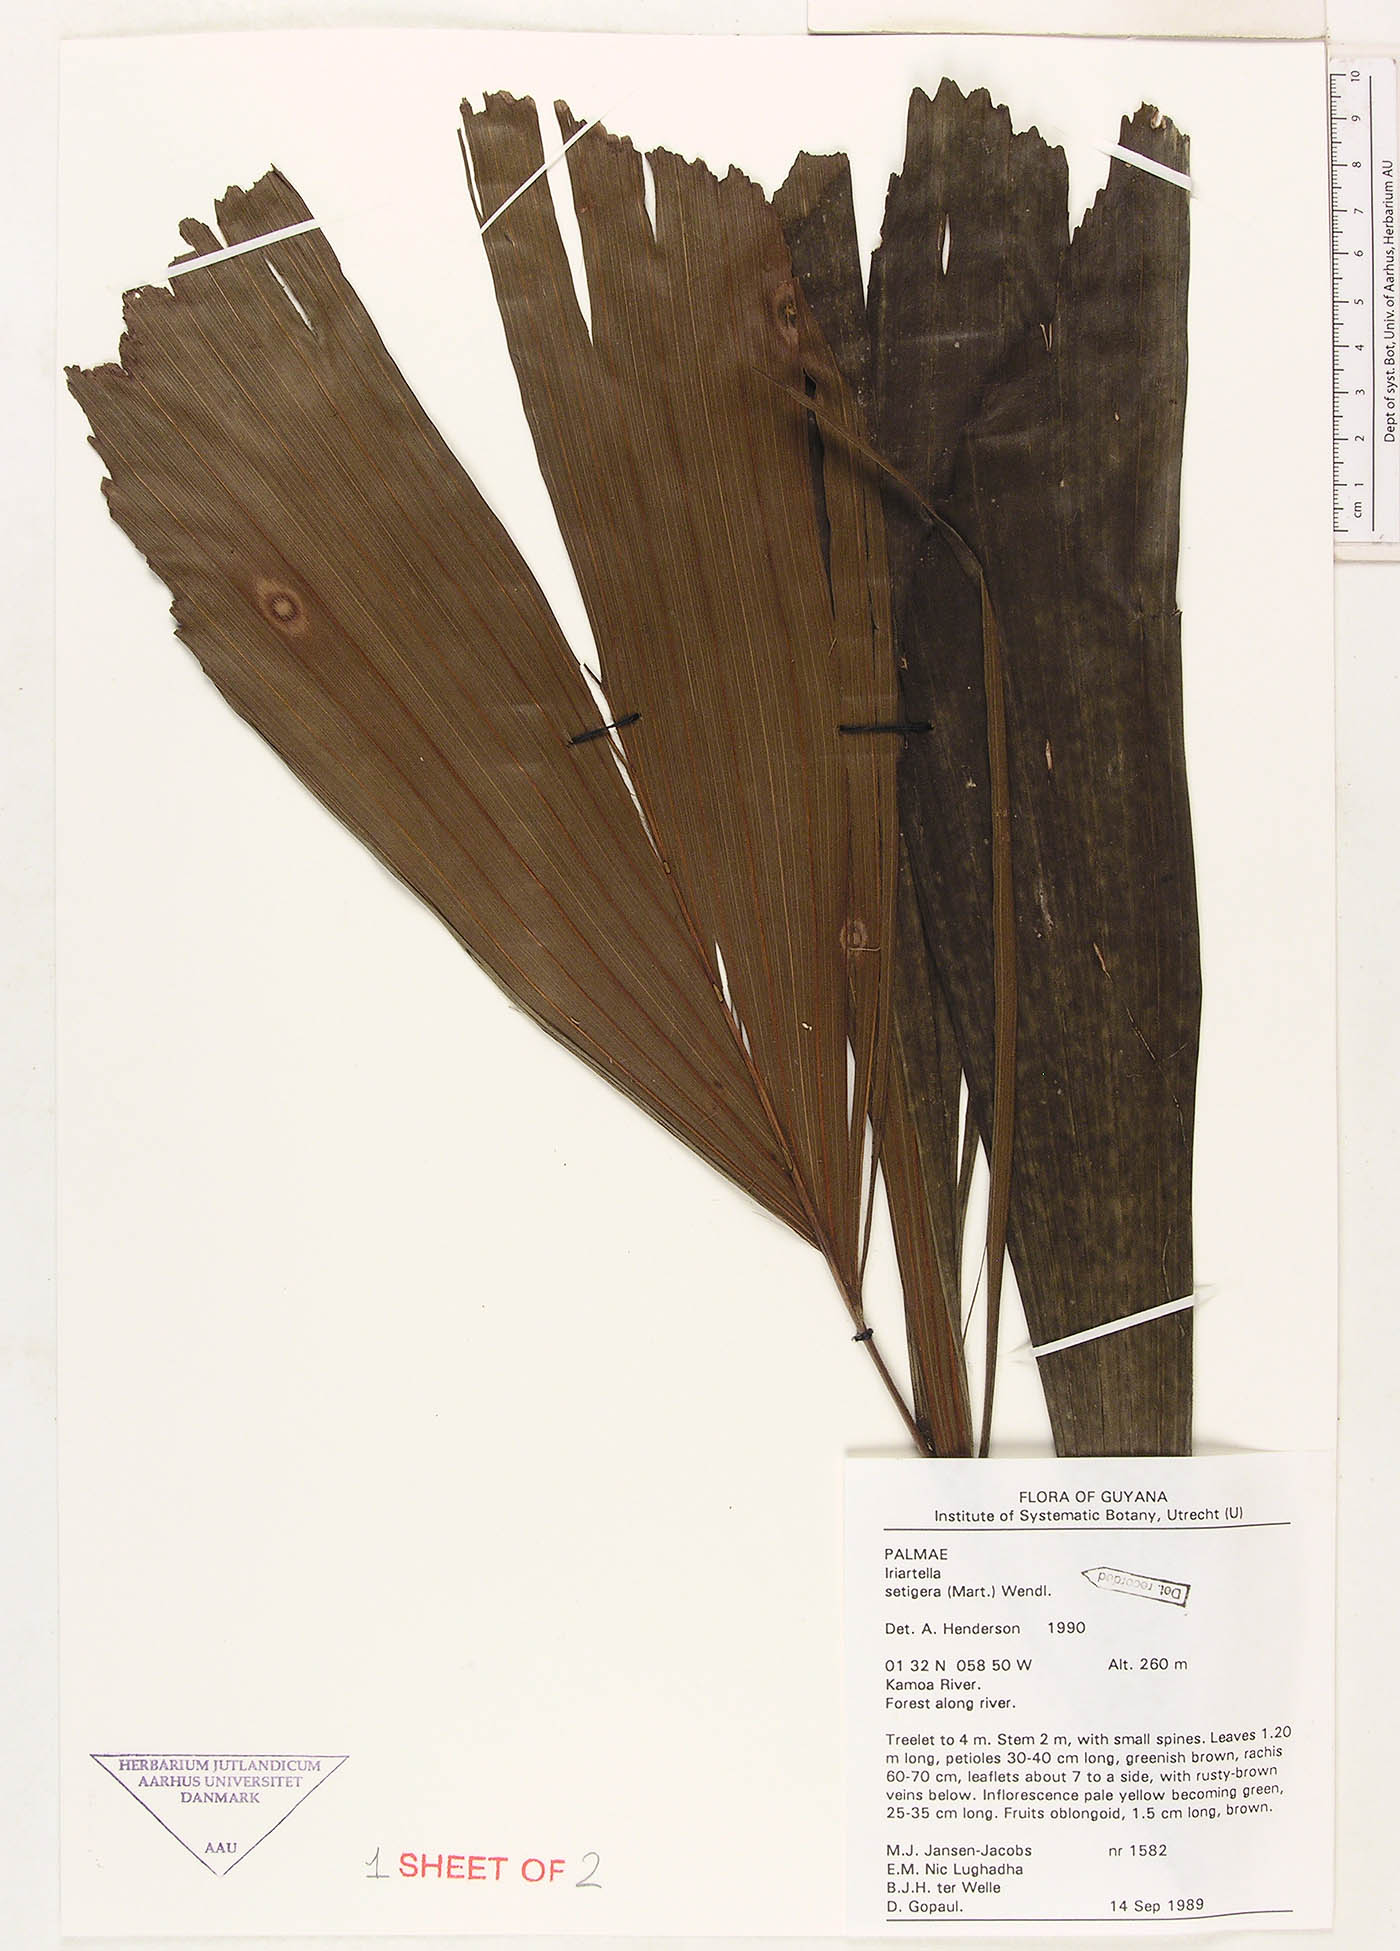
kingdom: Plantae
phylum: Tracheophyta
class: Liliopsida
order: Arecales
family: Arecaceae
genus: Iriartella
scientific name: Iriartella setigera
